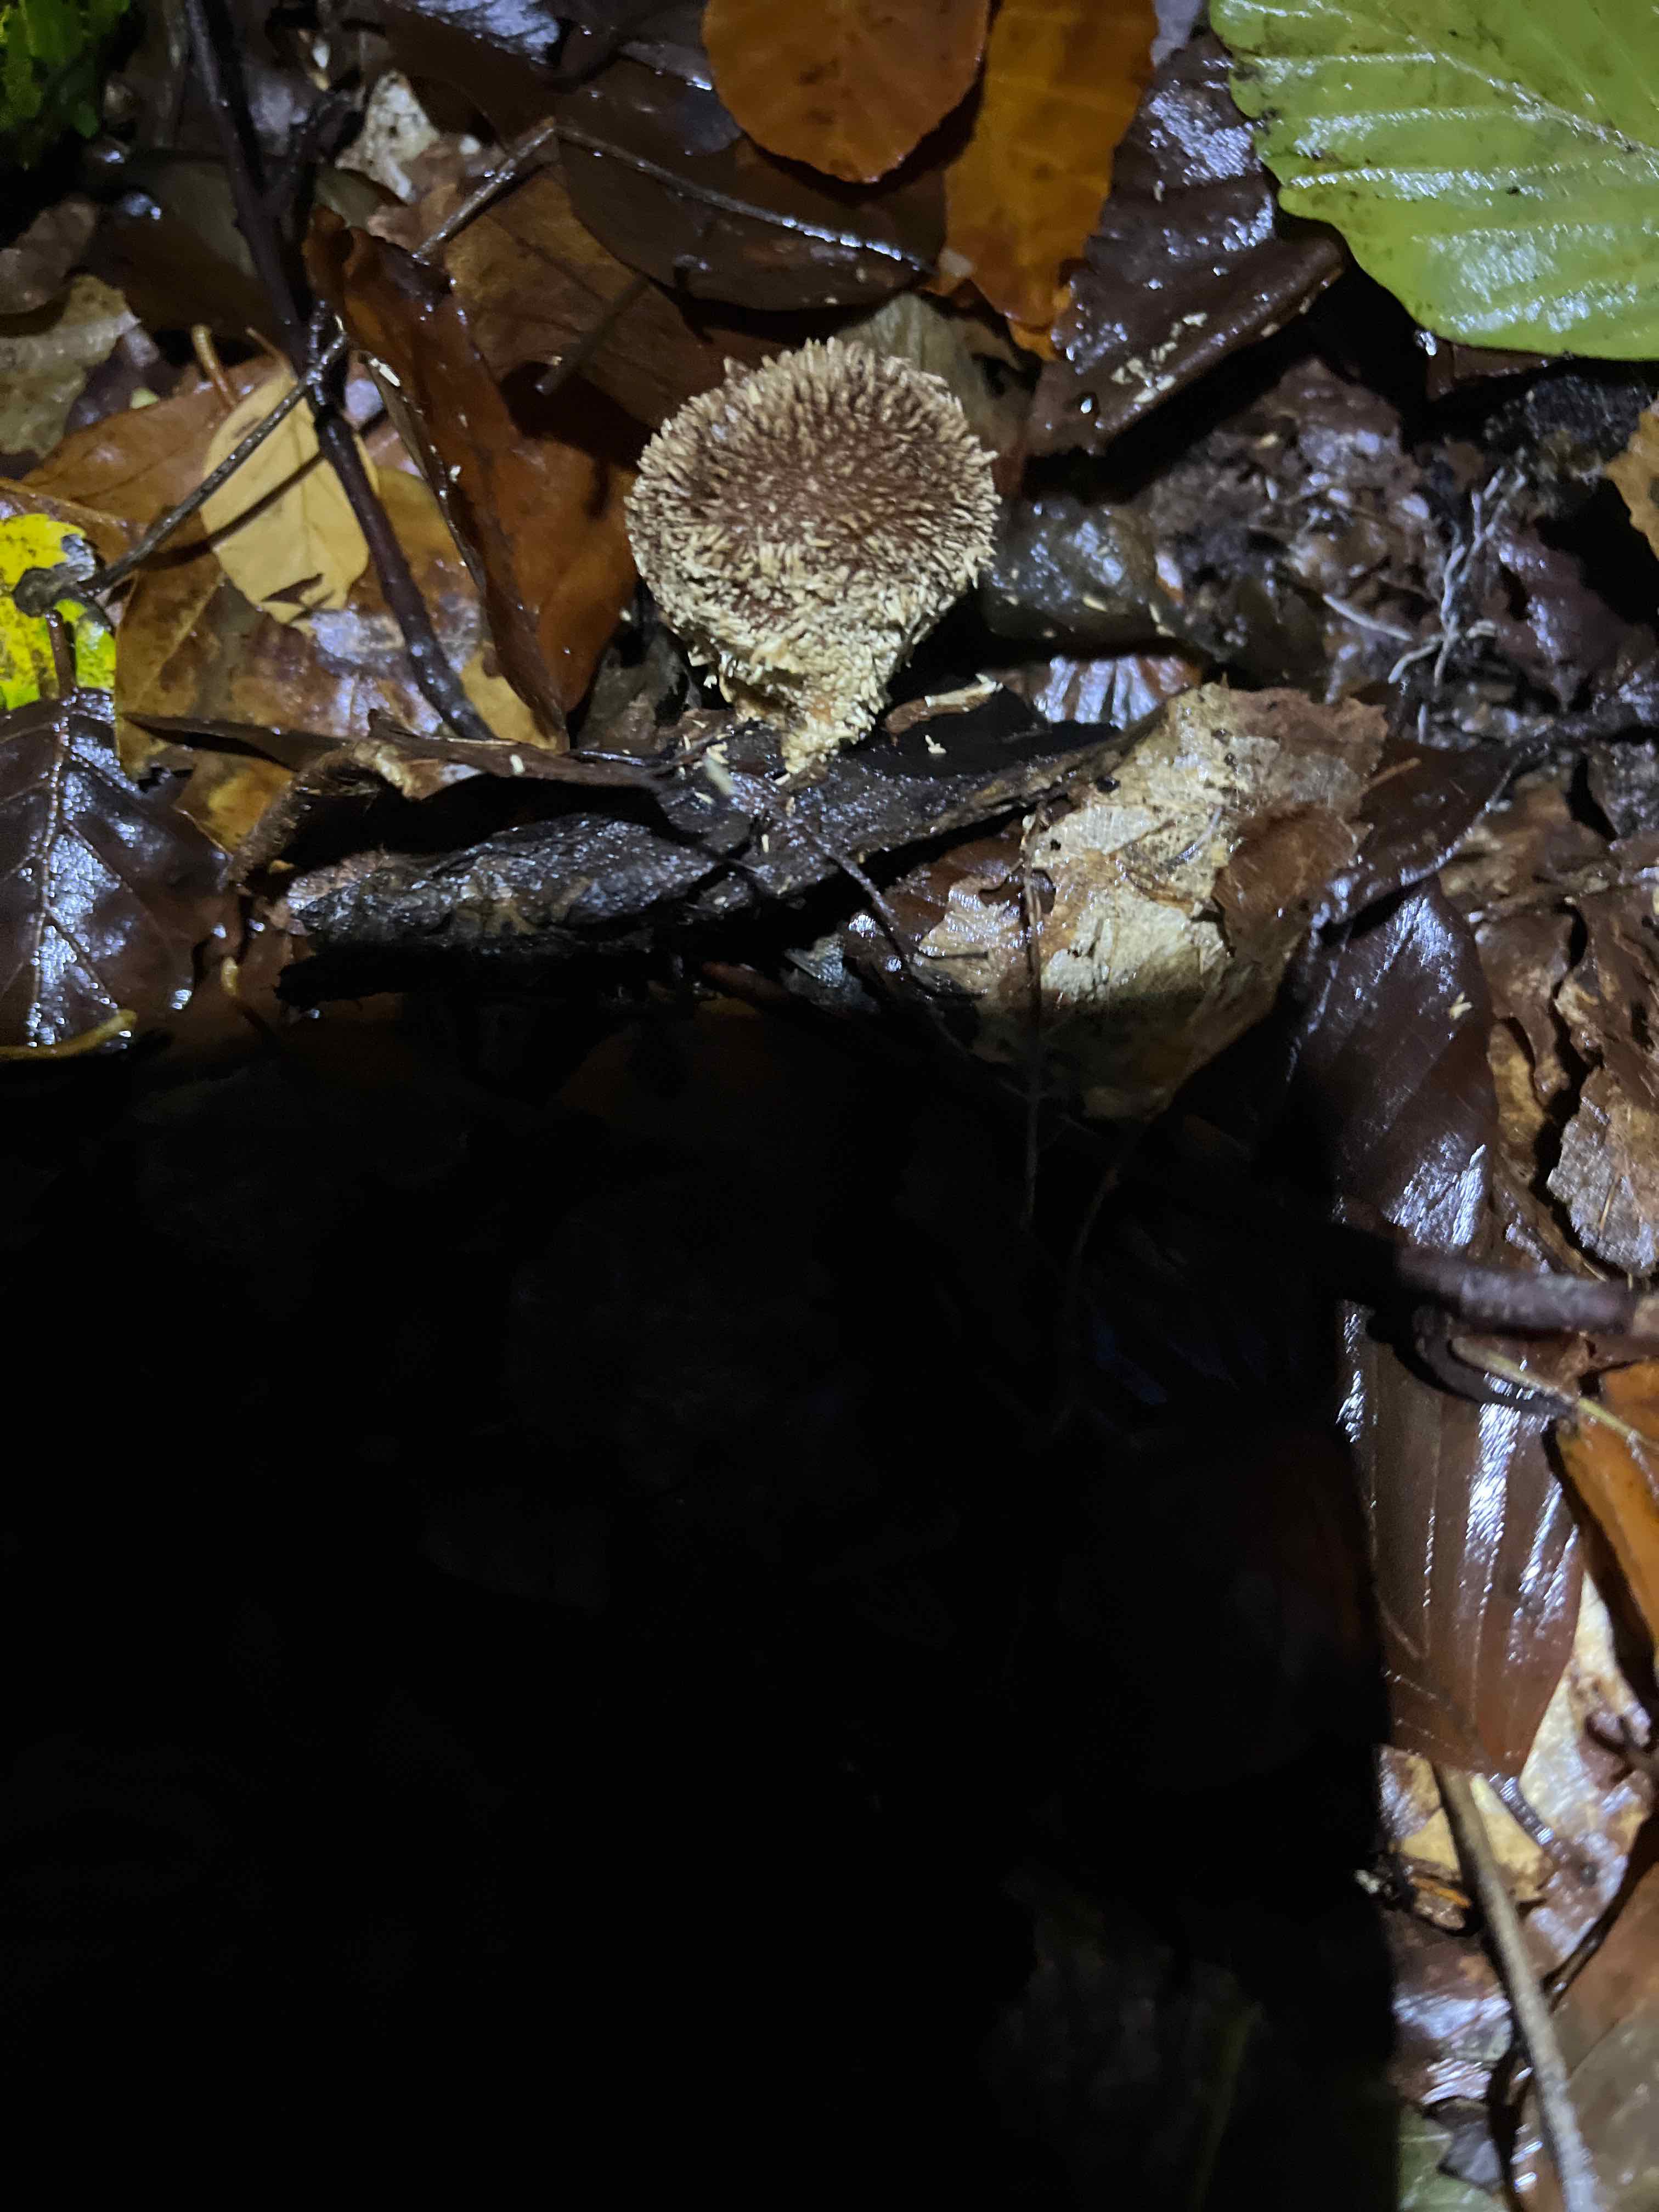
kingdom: Fungi
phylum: Basidiomycota
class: Agaricomycetes
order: Agaricales
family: Lycoperdaceae
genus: Lycoperdon
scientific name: Lycoperdon echinatum
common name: pindsvine-støvbold
